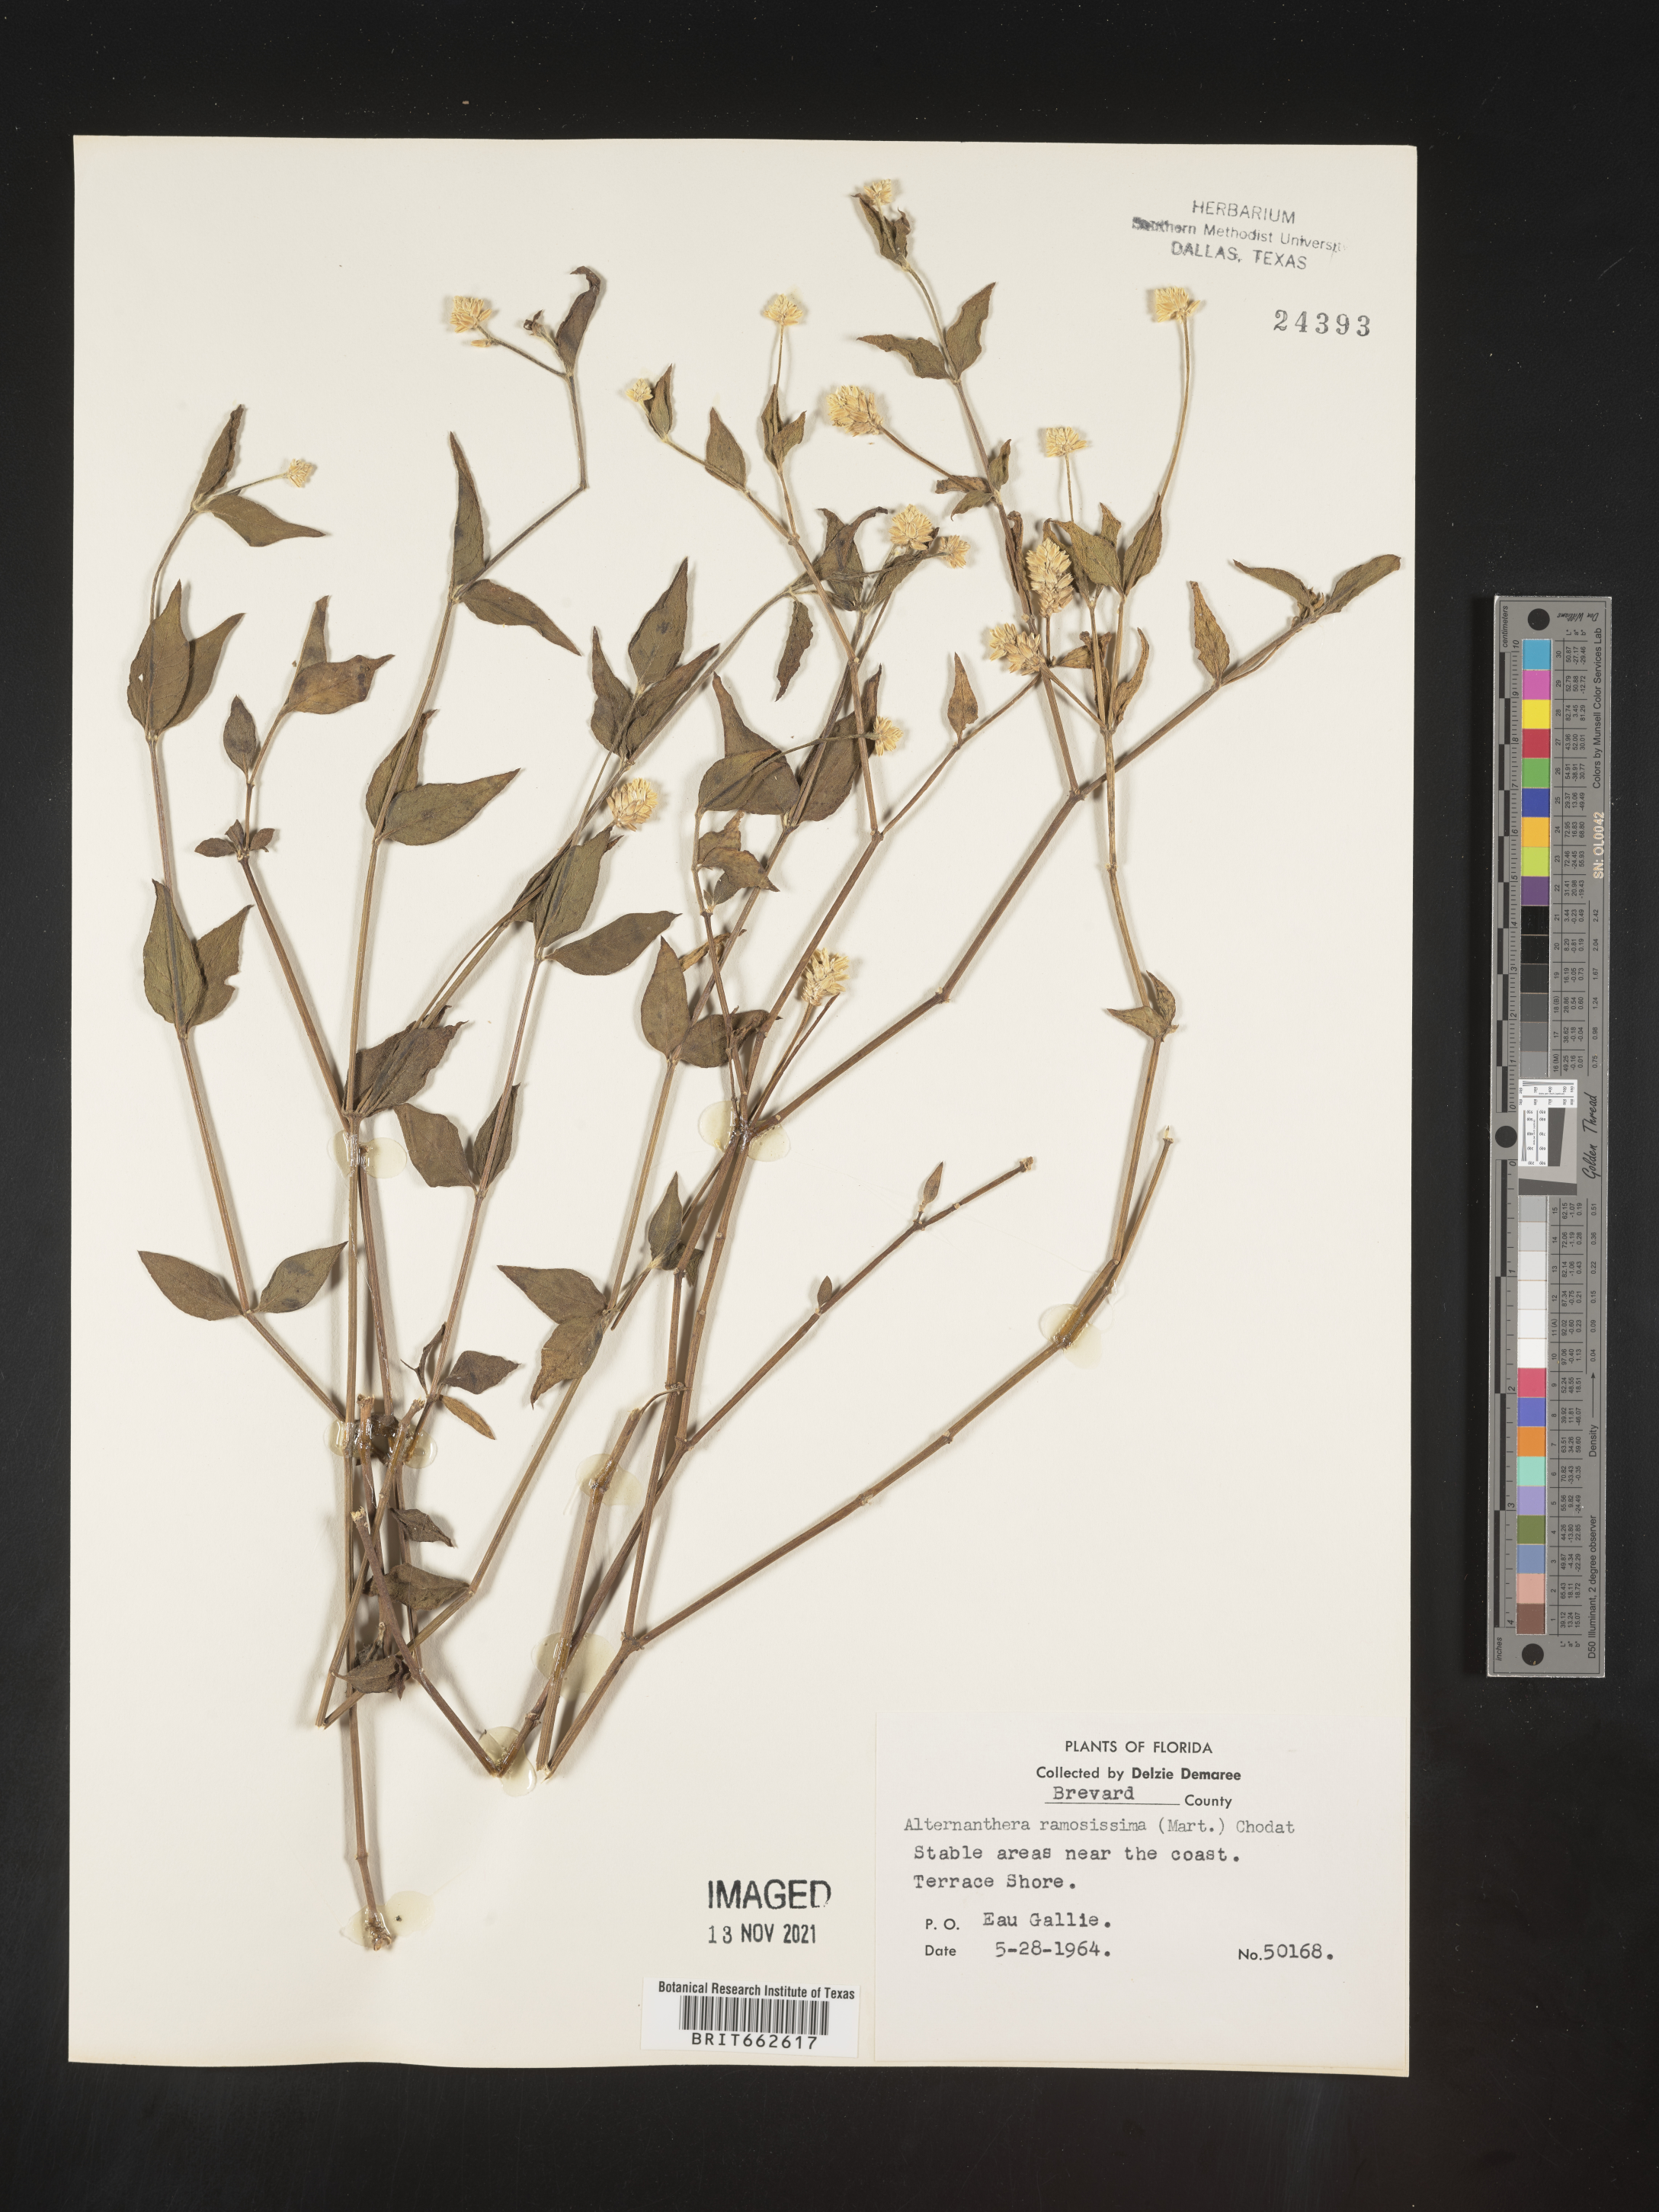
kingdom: Plantae
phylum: Tracheophyta
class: Magnoliopsida
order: Caryophyllales
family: Amaranthaceae
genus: Alternanthera
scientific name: Alternanthera ramosissima
